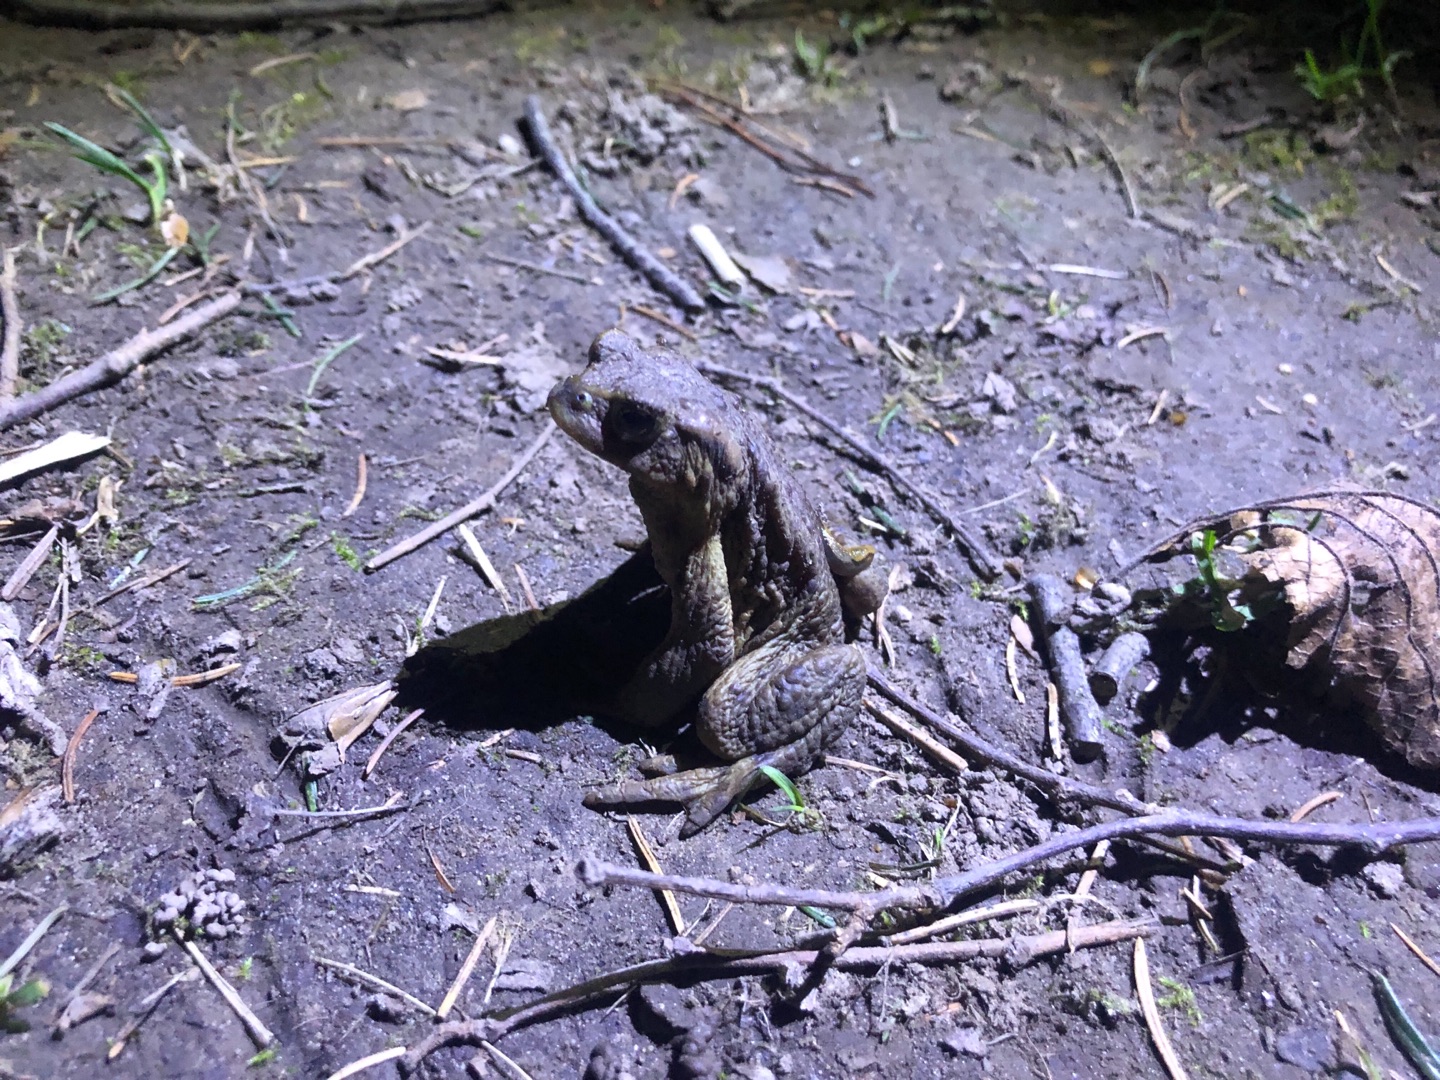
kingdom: Animalia
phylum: Chordata
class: Amphibia
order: Anura
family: Bufonidae
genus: Bufo
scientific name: Bufo bufo
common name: Skrubtudse
